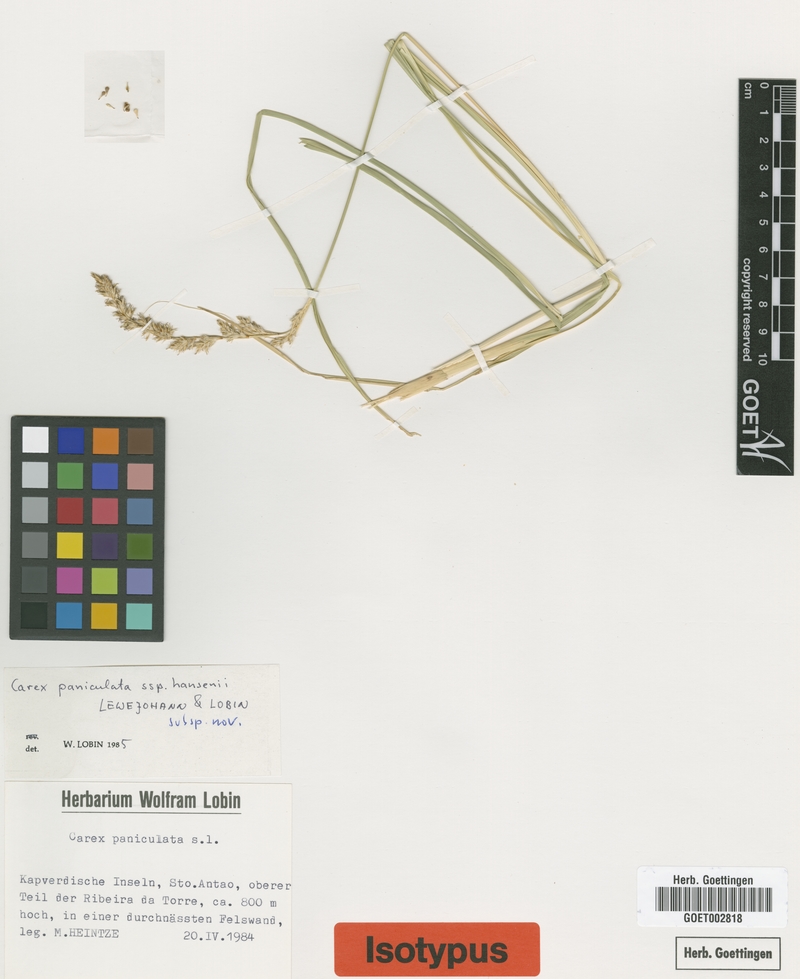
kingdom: Plantae
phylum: Tracheophyta
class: Liliopsida
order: Poales
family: Cyperaceae
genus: Carex
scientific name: Carex hansenii
